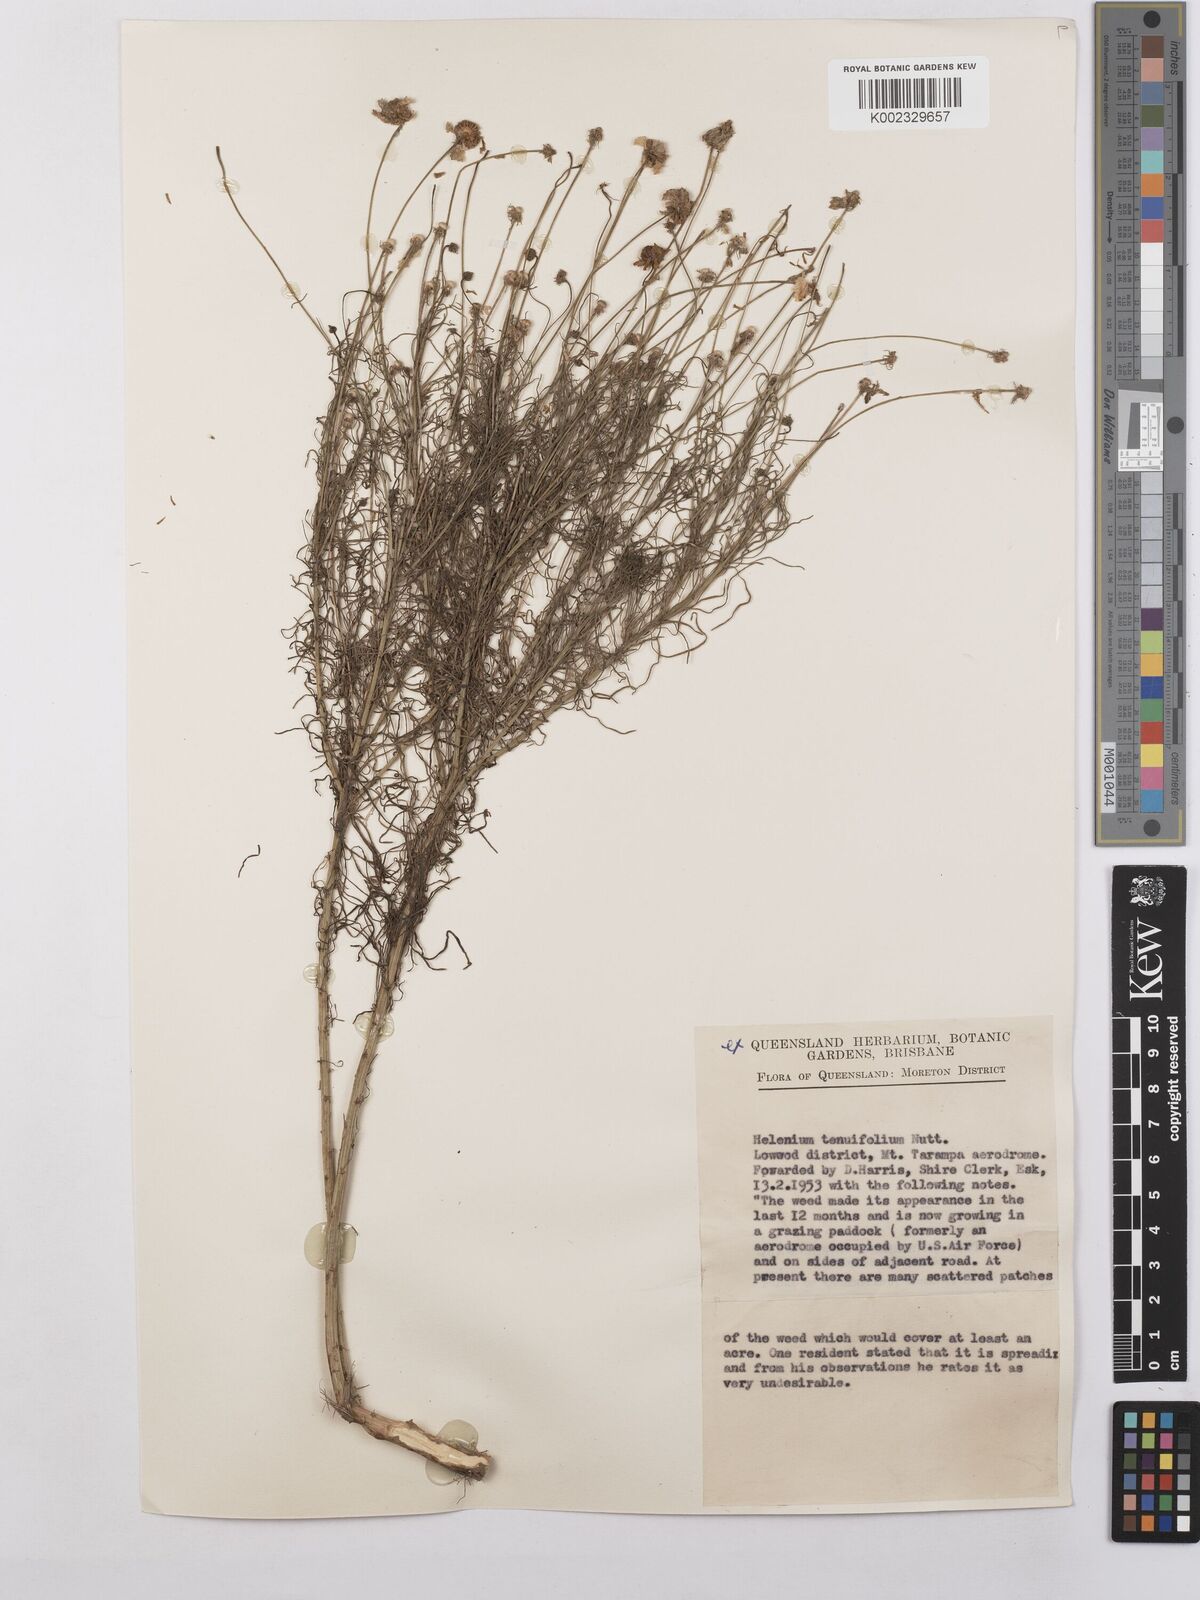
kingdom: Plantae
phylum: Tracheophyta
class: Magnoliopsida
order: Asterales
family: Asteraceae
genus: Helenium
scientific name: Helenium amarum
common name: Bitter sneezeweed
